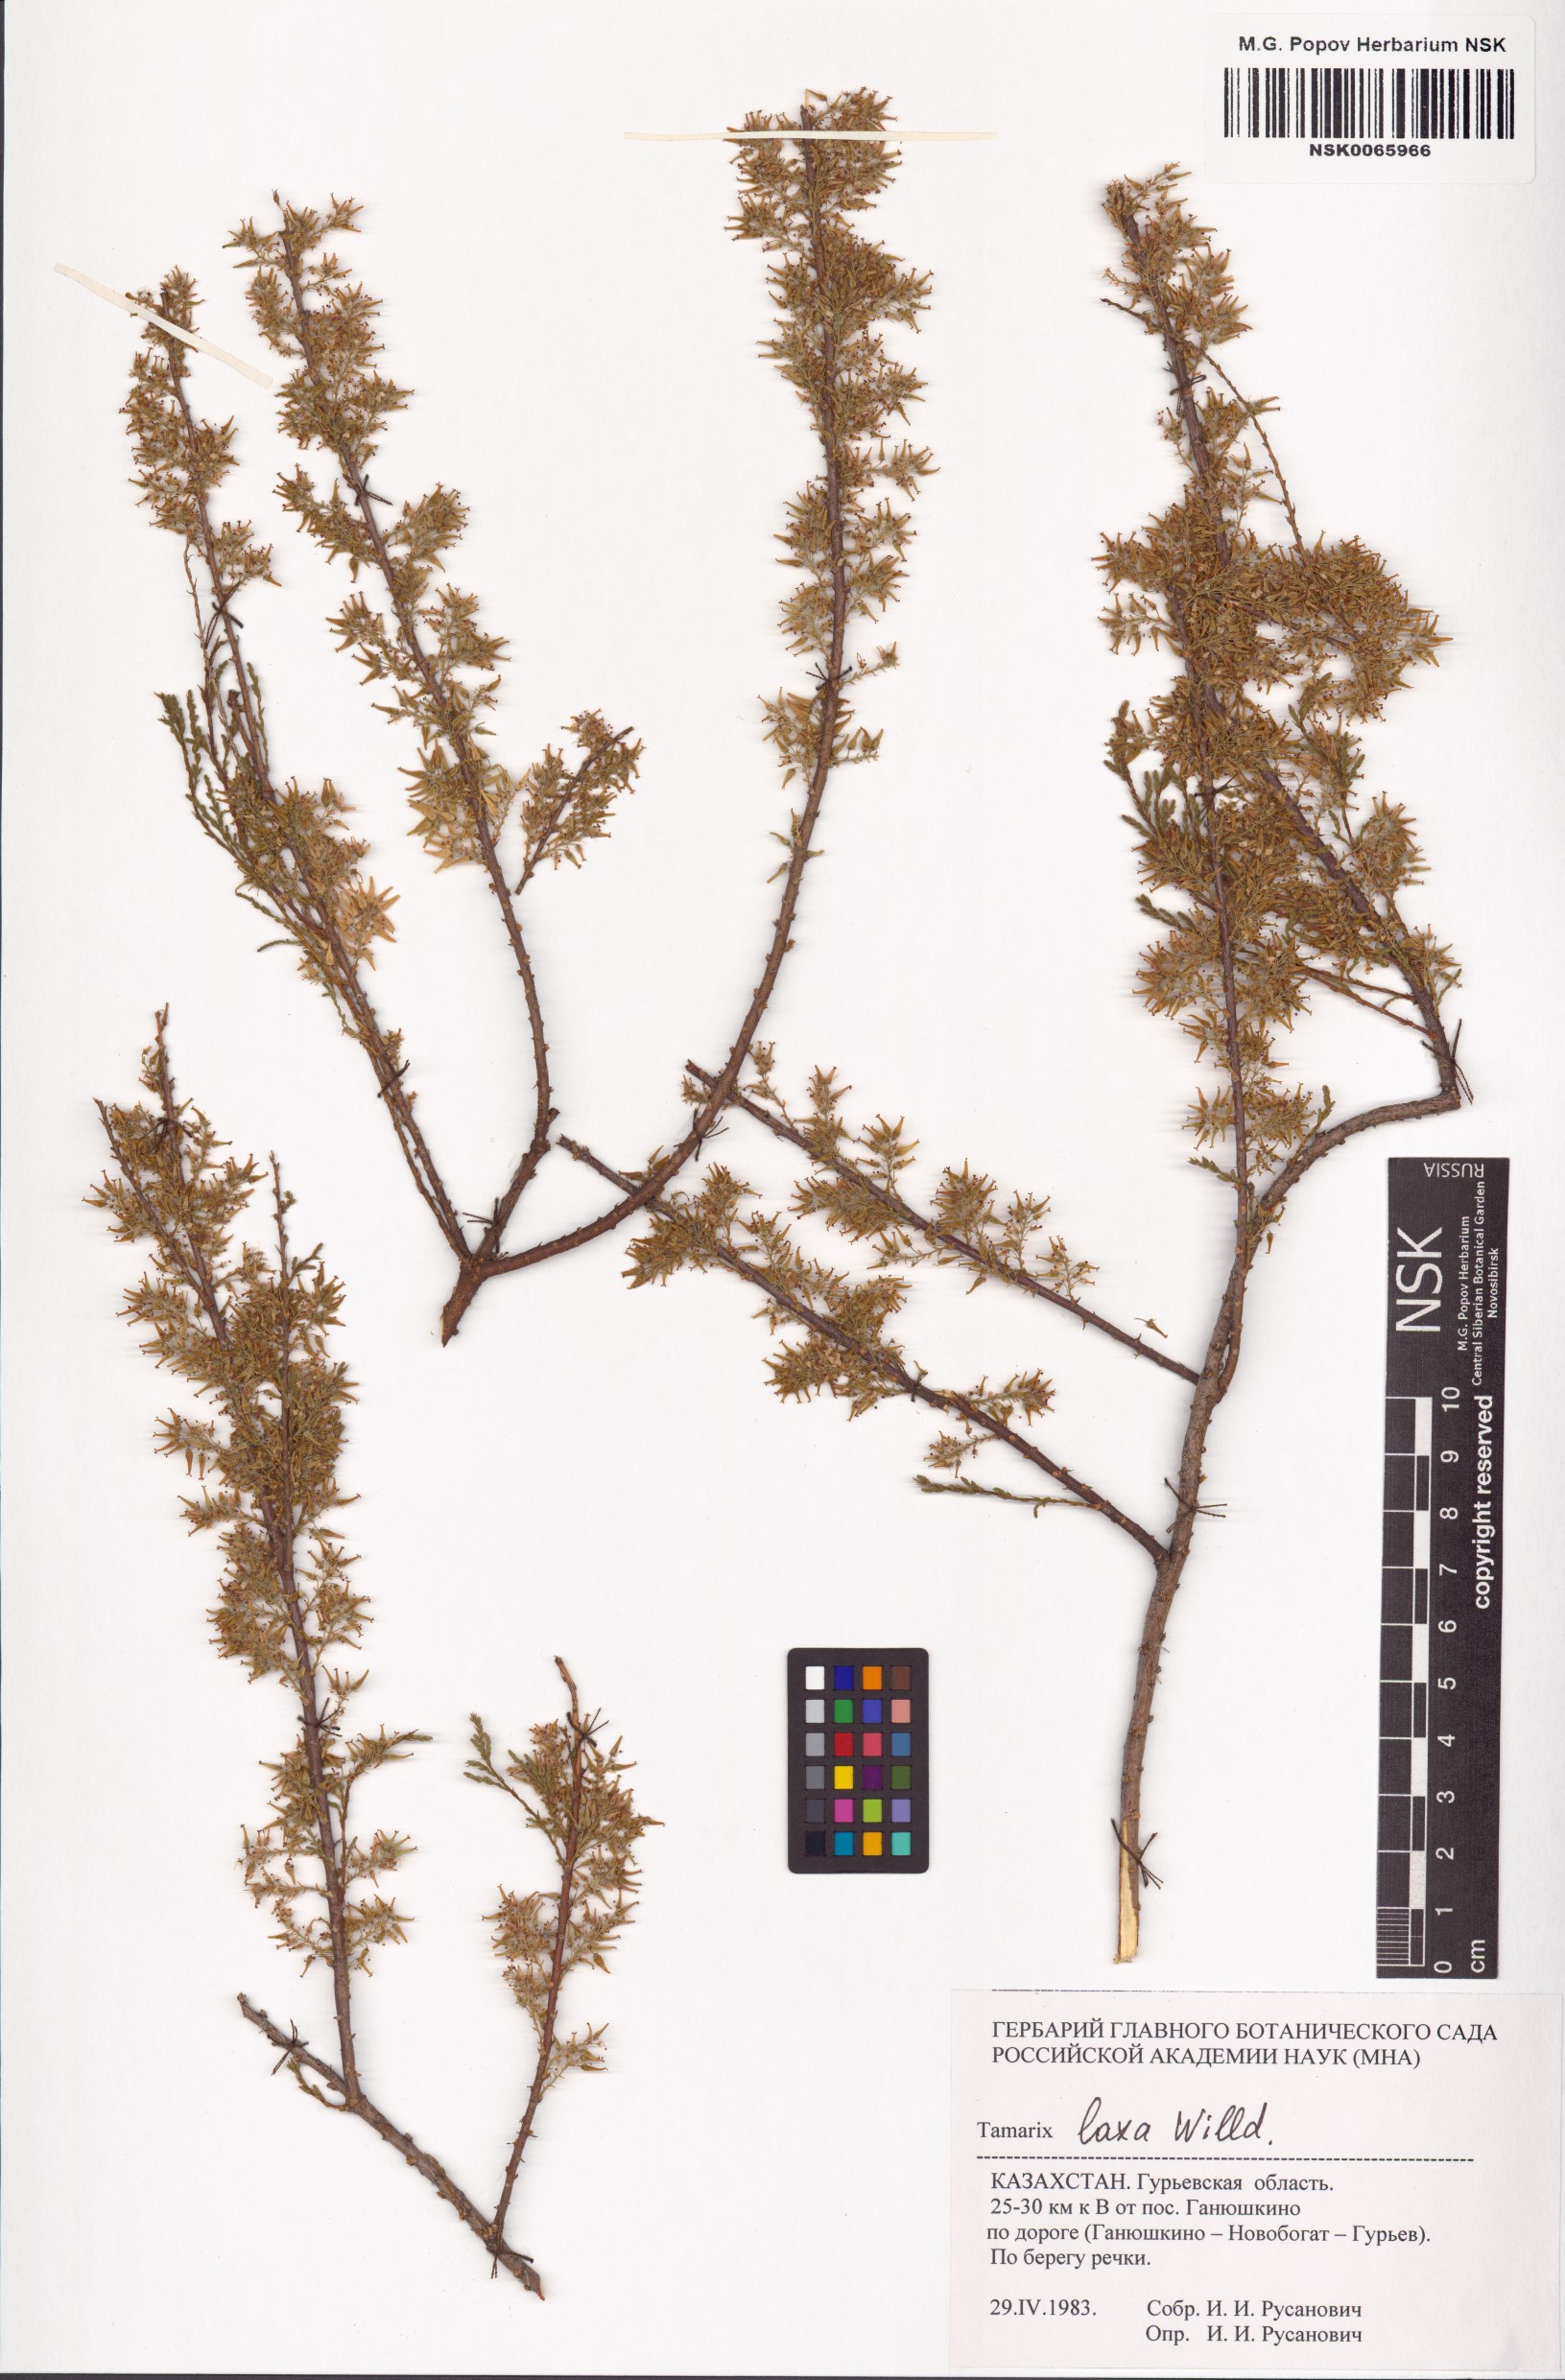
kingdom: Plantae
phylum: Tracheophyta
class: Magnoliopsida
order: Caryophyllales
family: Tamaricaceae
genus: Tamarix
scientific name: Tamarix laxa
